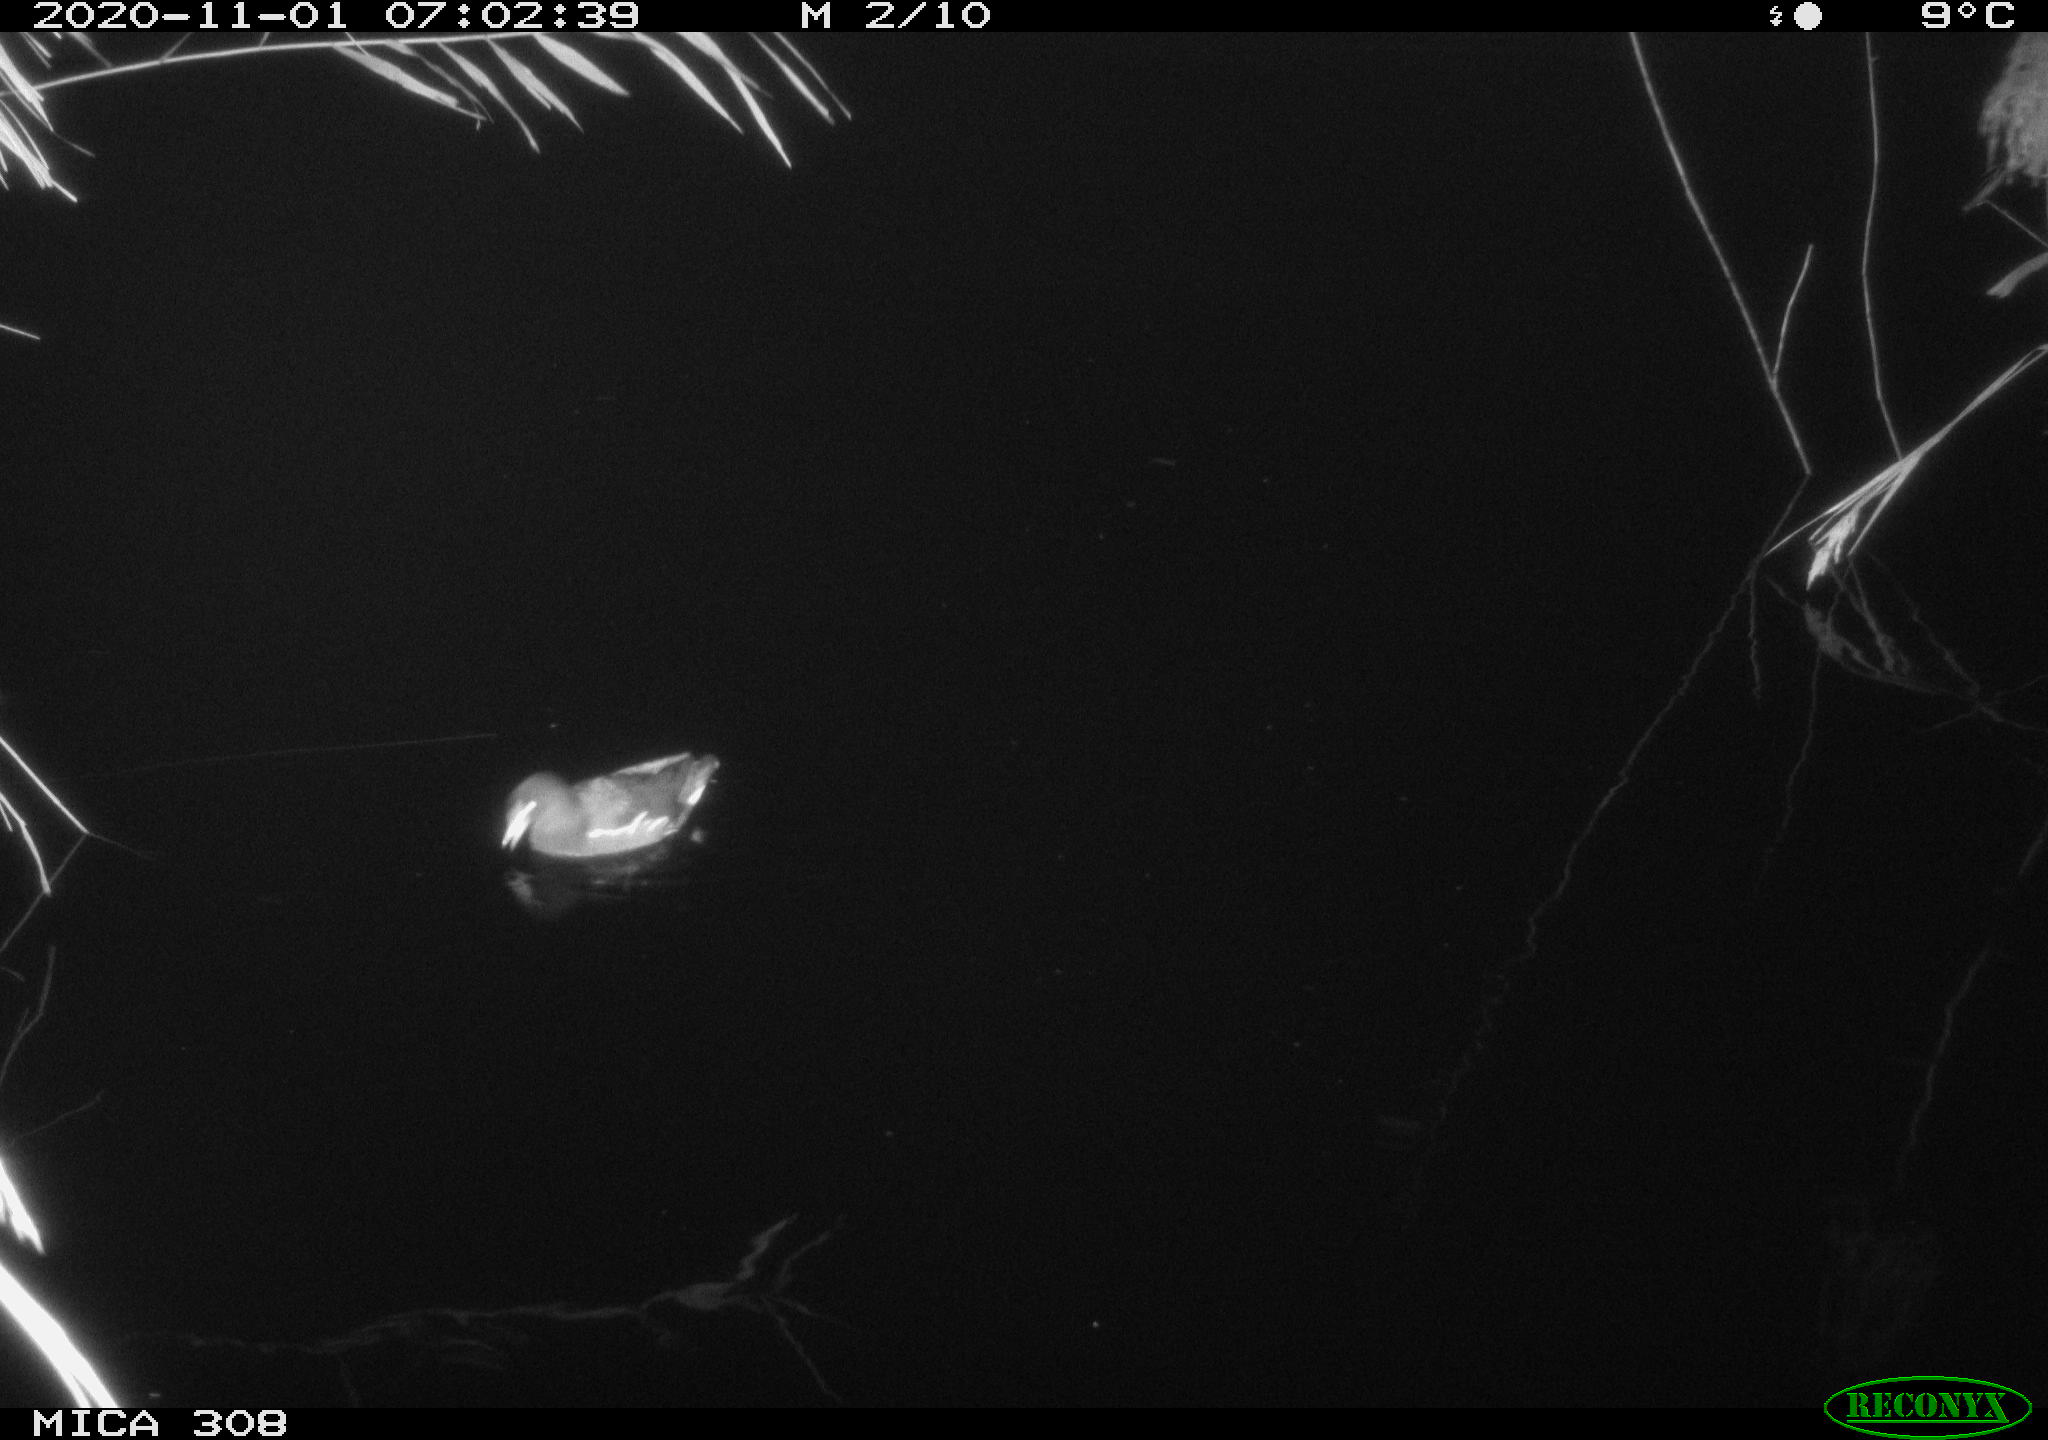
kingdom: Animalia
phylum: Chordata
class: Aves
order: Gruiformes
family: Rallidae
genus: Gallinula
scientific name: Gallinula chloropus
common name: Common moorhen
